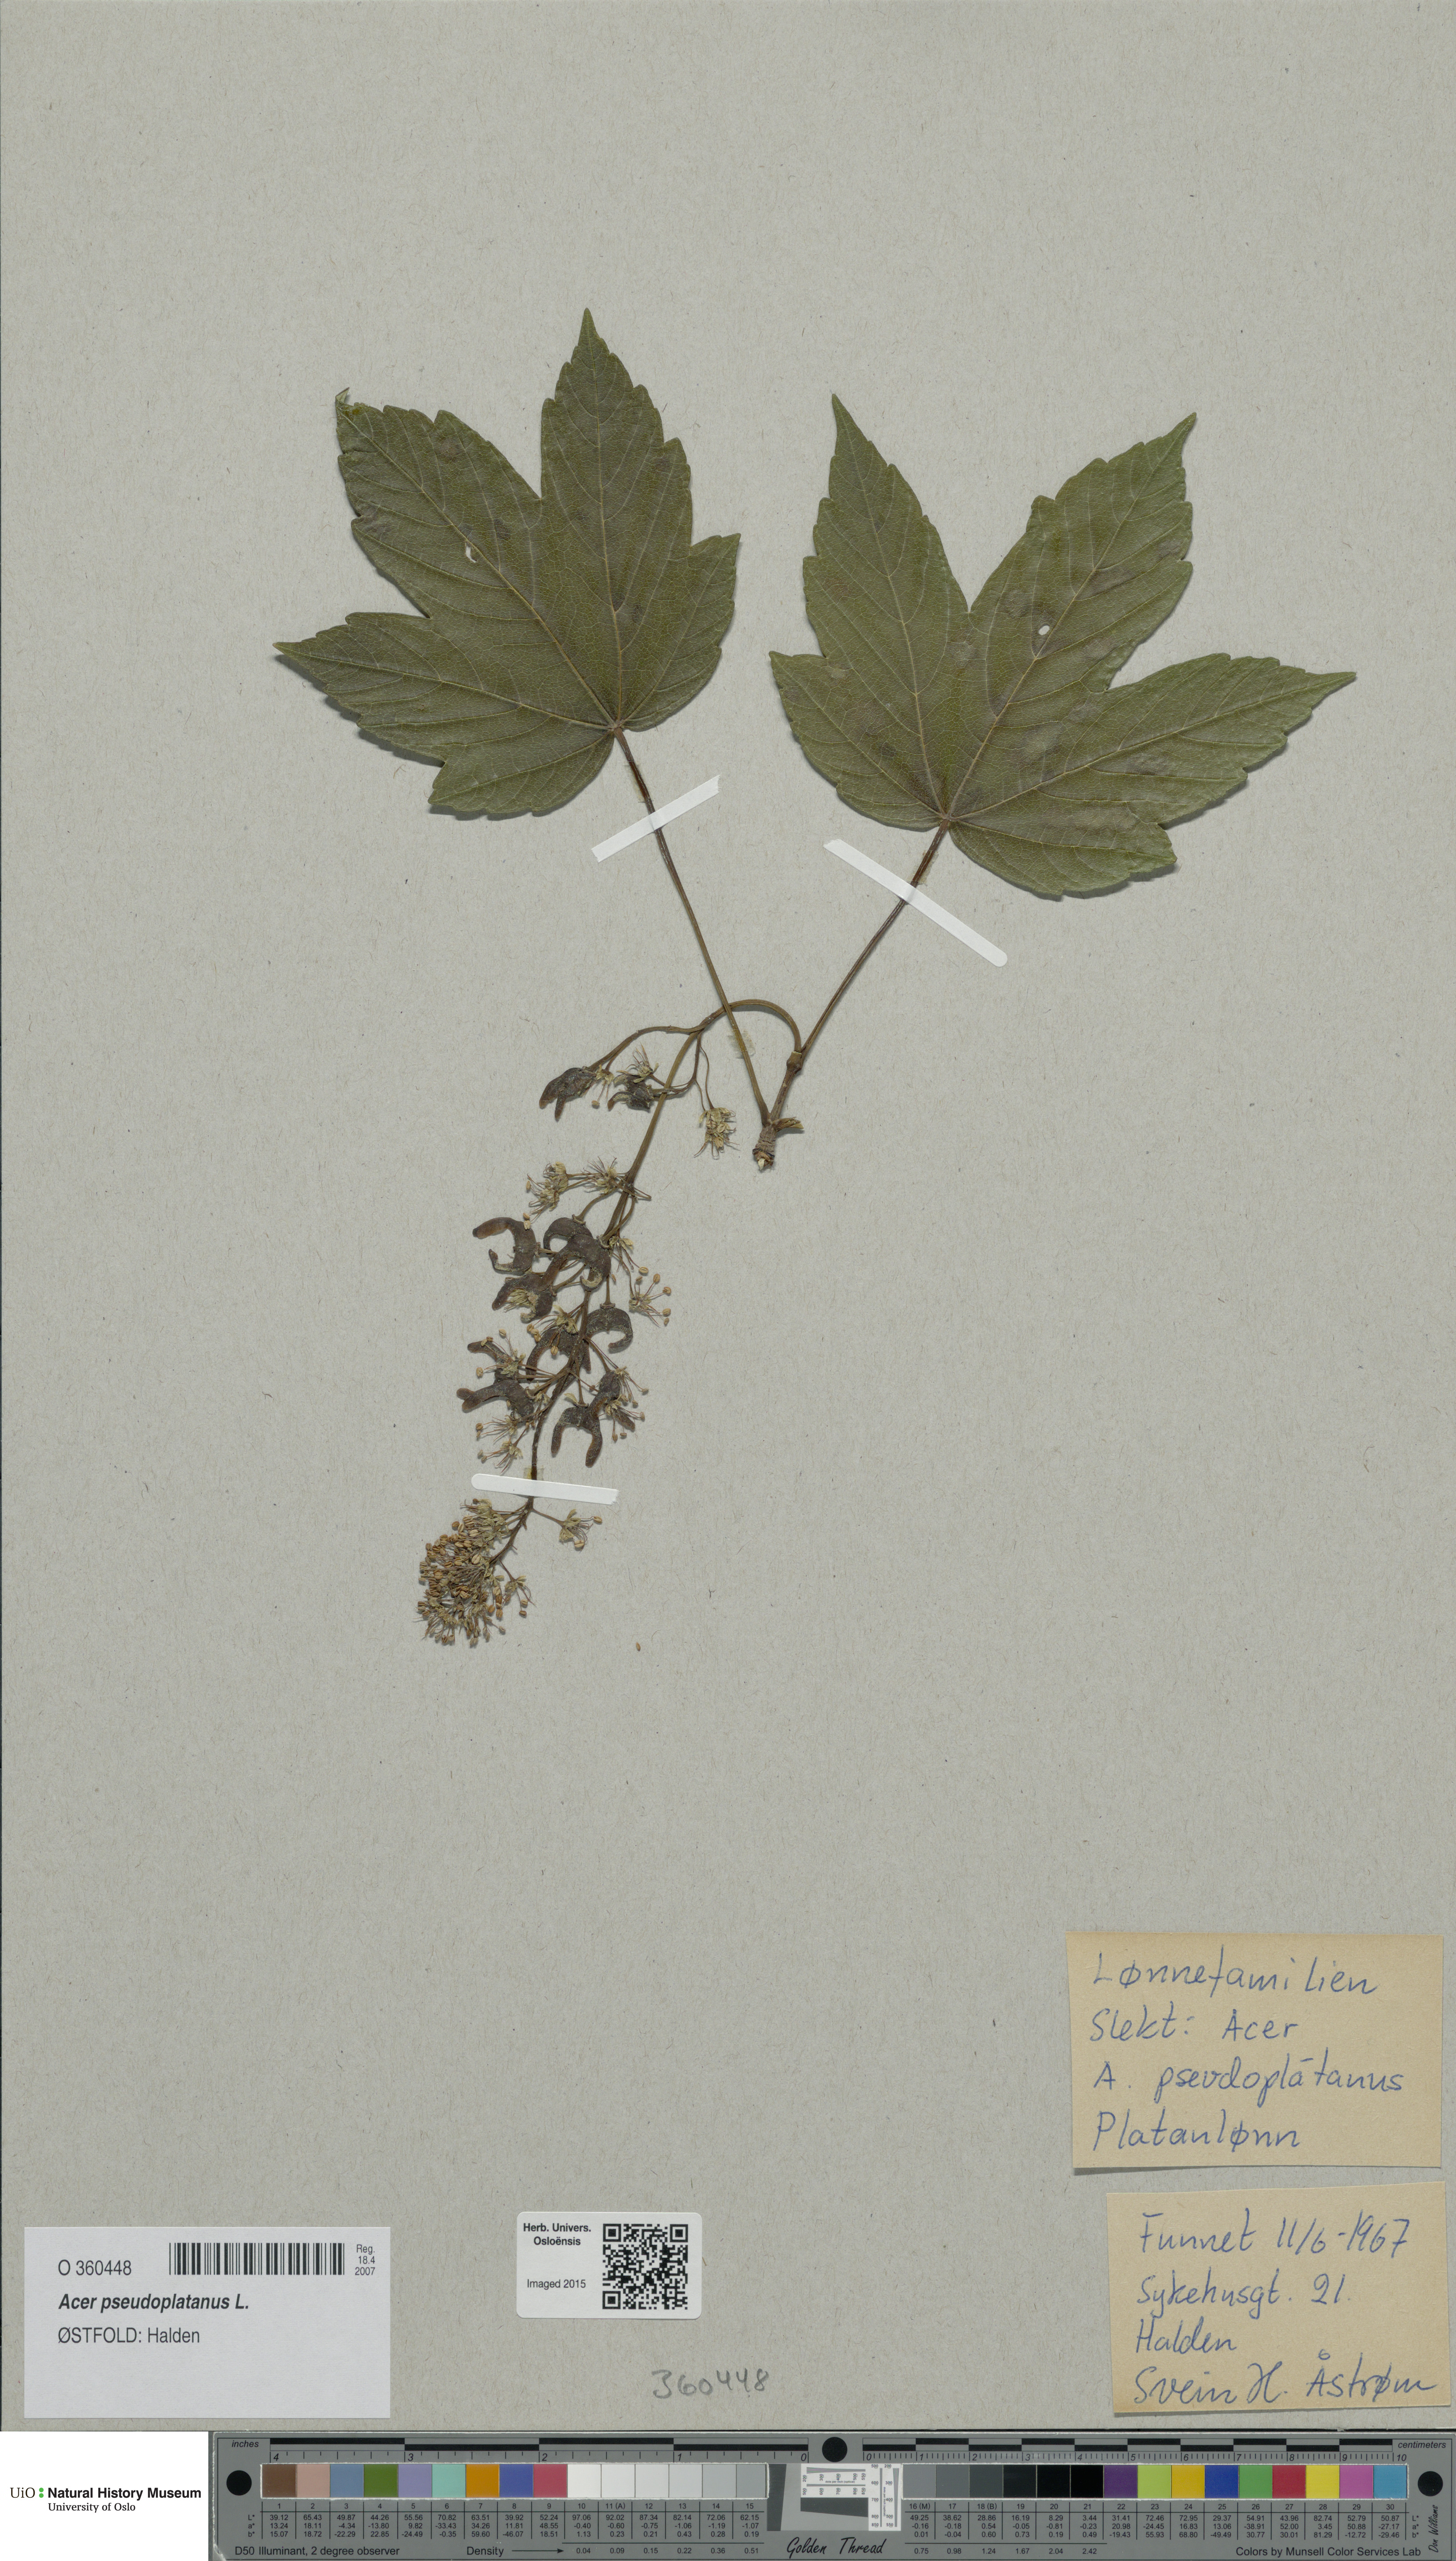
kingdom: Plantae
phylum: Tracheophyta
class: Magnoliopsida
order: Sapindales
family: Sapindaceae
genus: Acer
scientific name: Acer pseudoplatanus
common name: Sycamore
